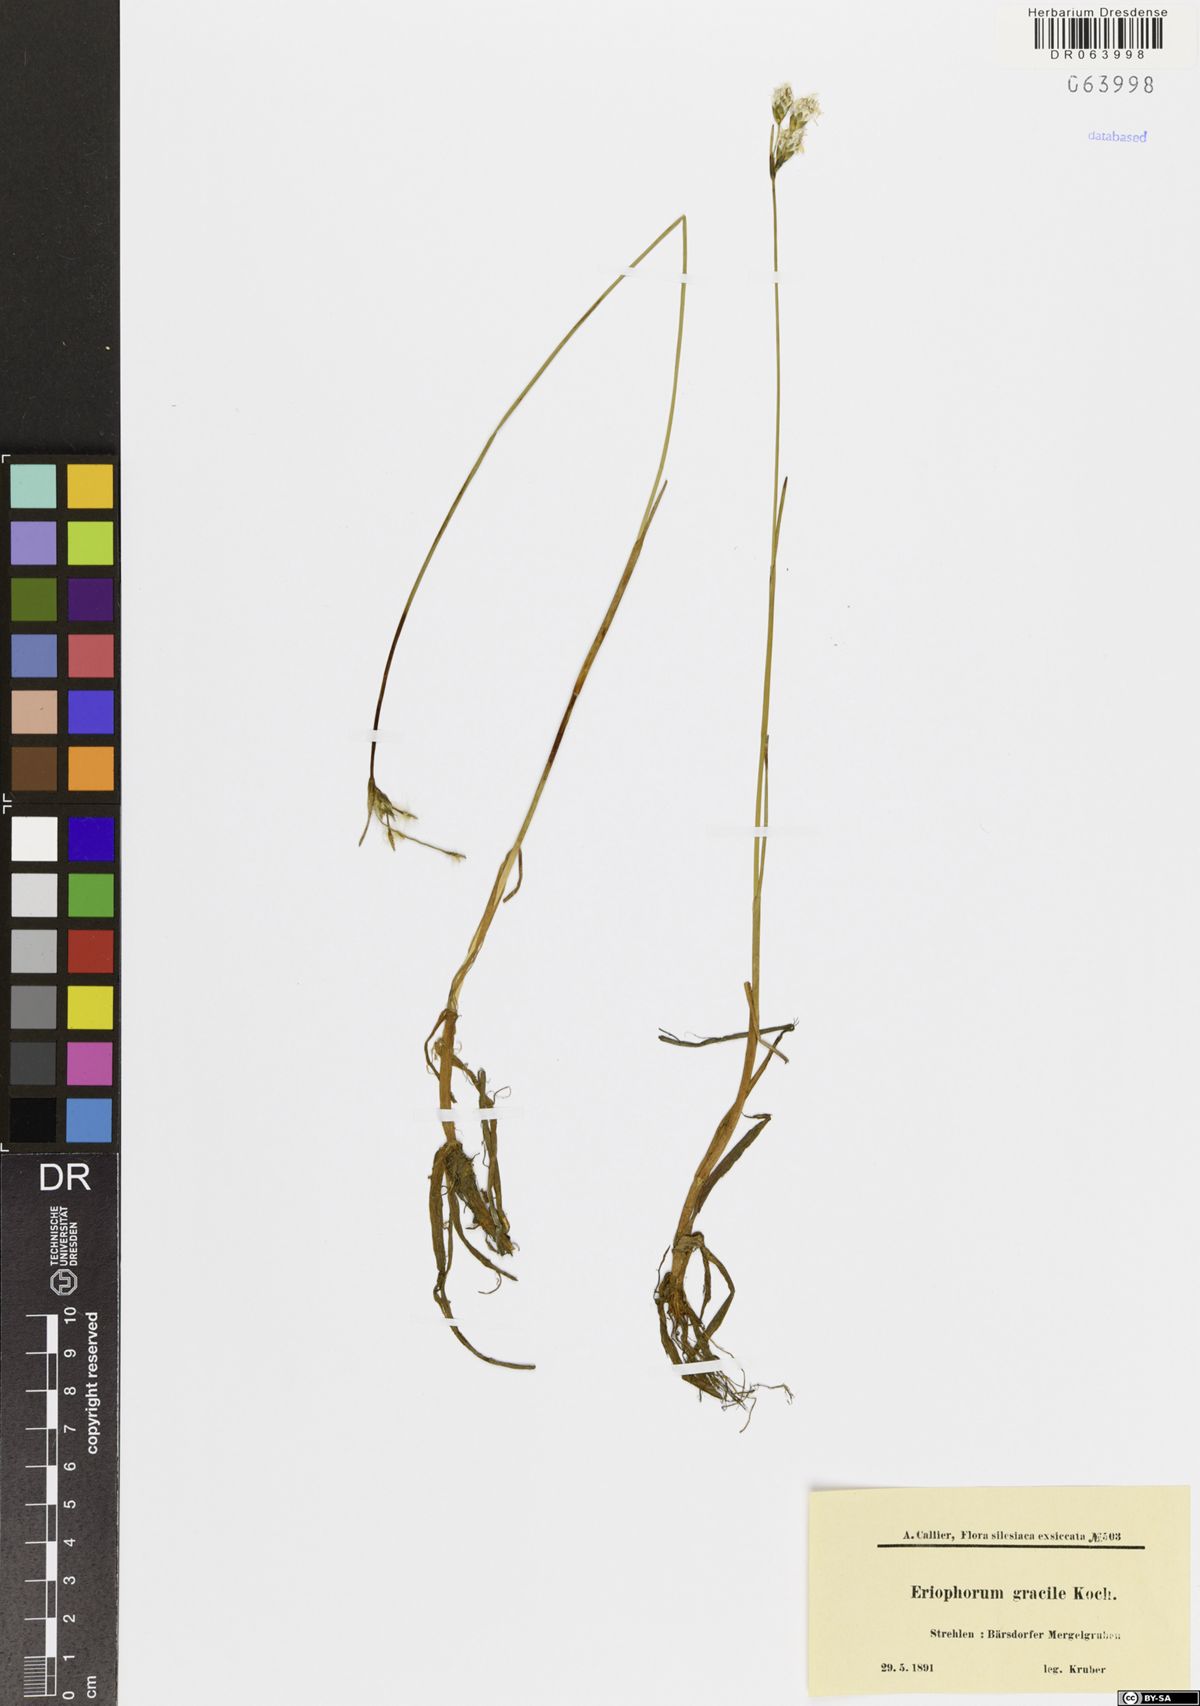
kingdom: Plantae
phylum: Tracheophyta
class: Liliopsida
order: Poales
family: Cyperaceae
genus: Eriophorum
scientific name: Eriophorum gracile
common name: Slender cottongrass
